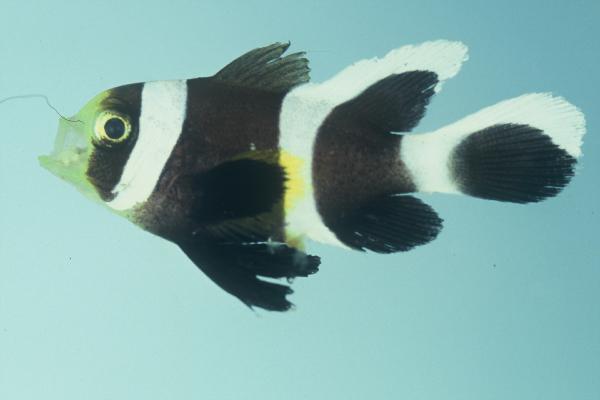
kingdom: Animalia
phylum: Chordata
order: Perciformes
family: Pomacentridae
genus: Amphiprion
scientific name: Amphiprion akindynos
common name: Barrier reef anemonefish
